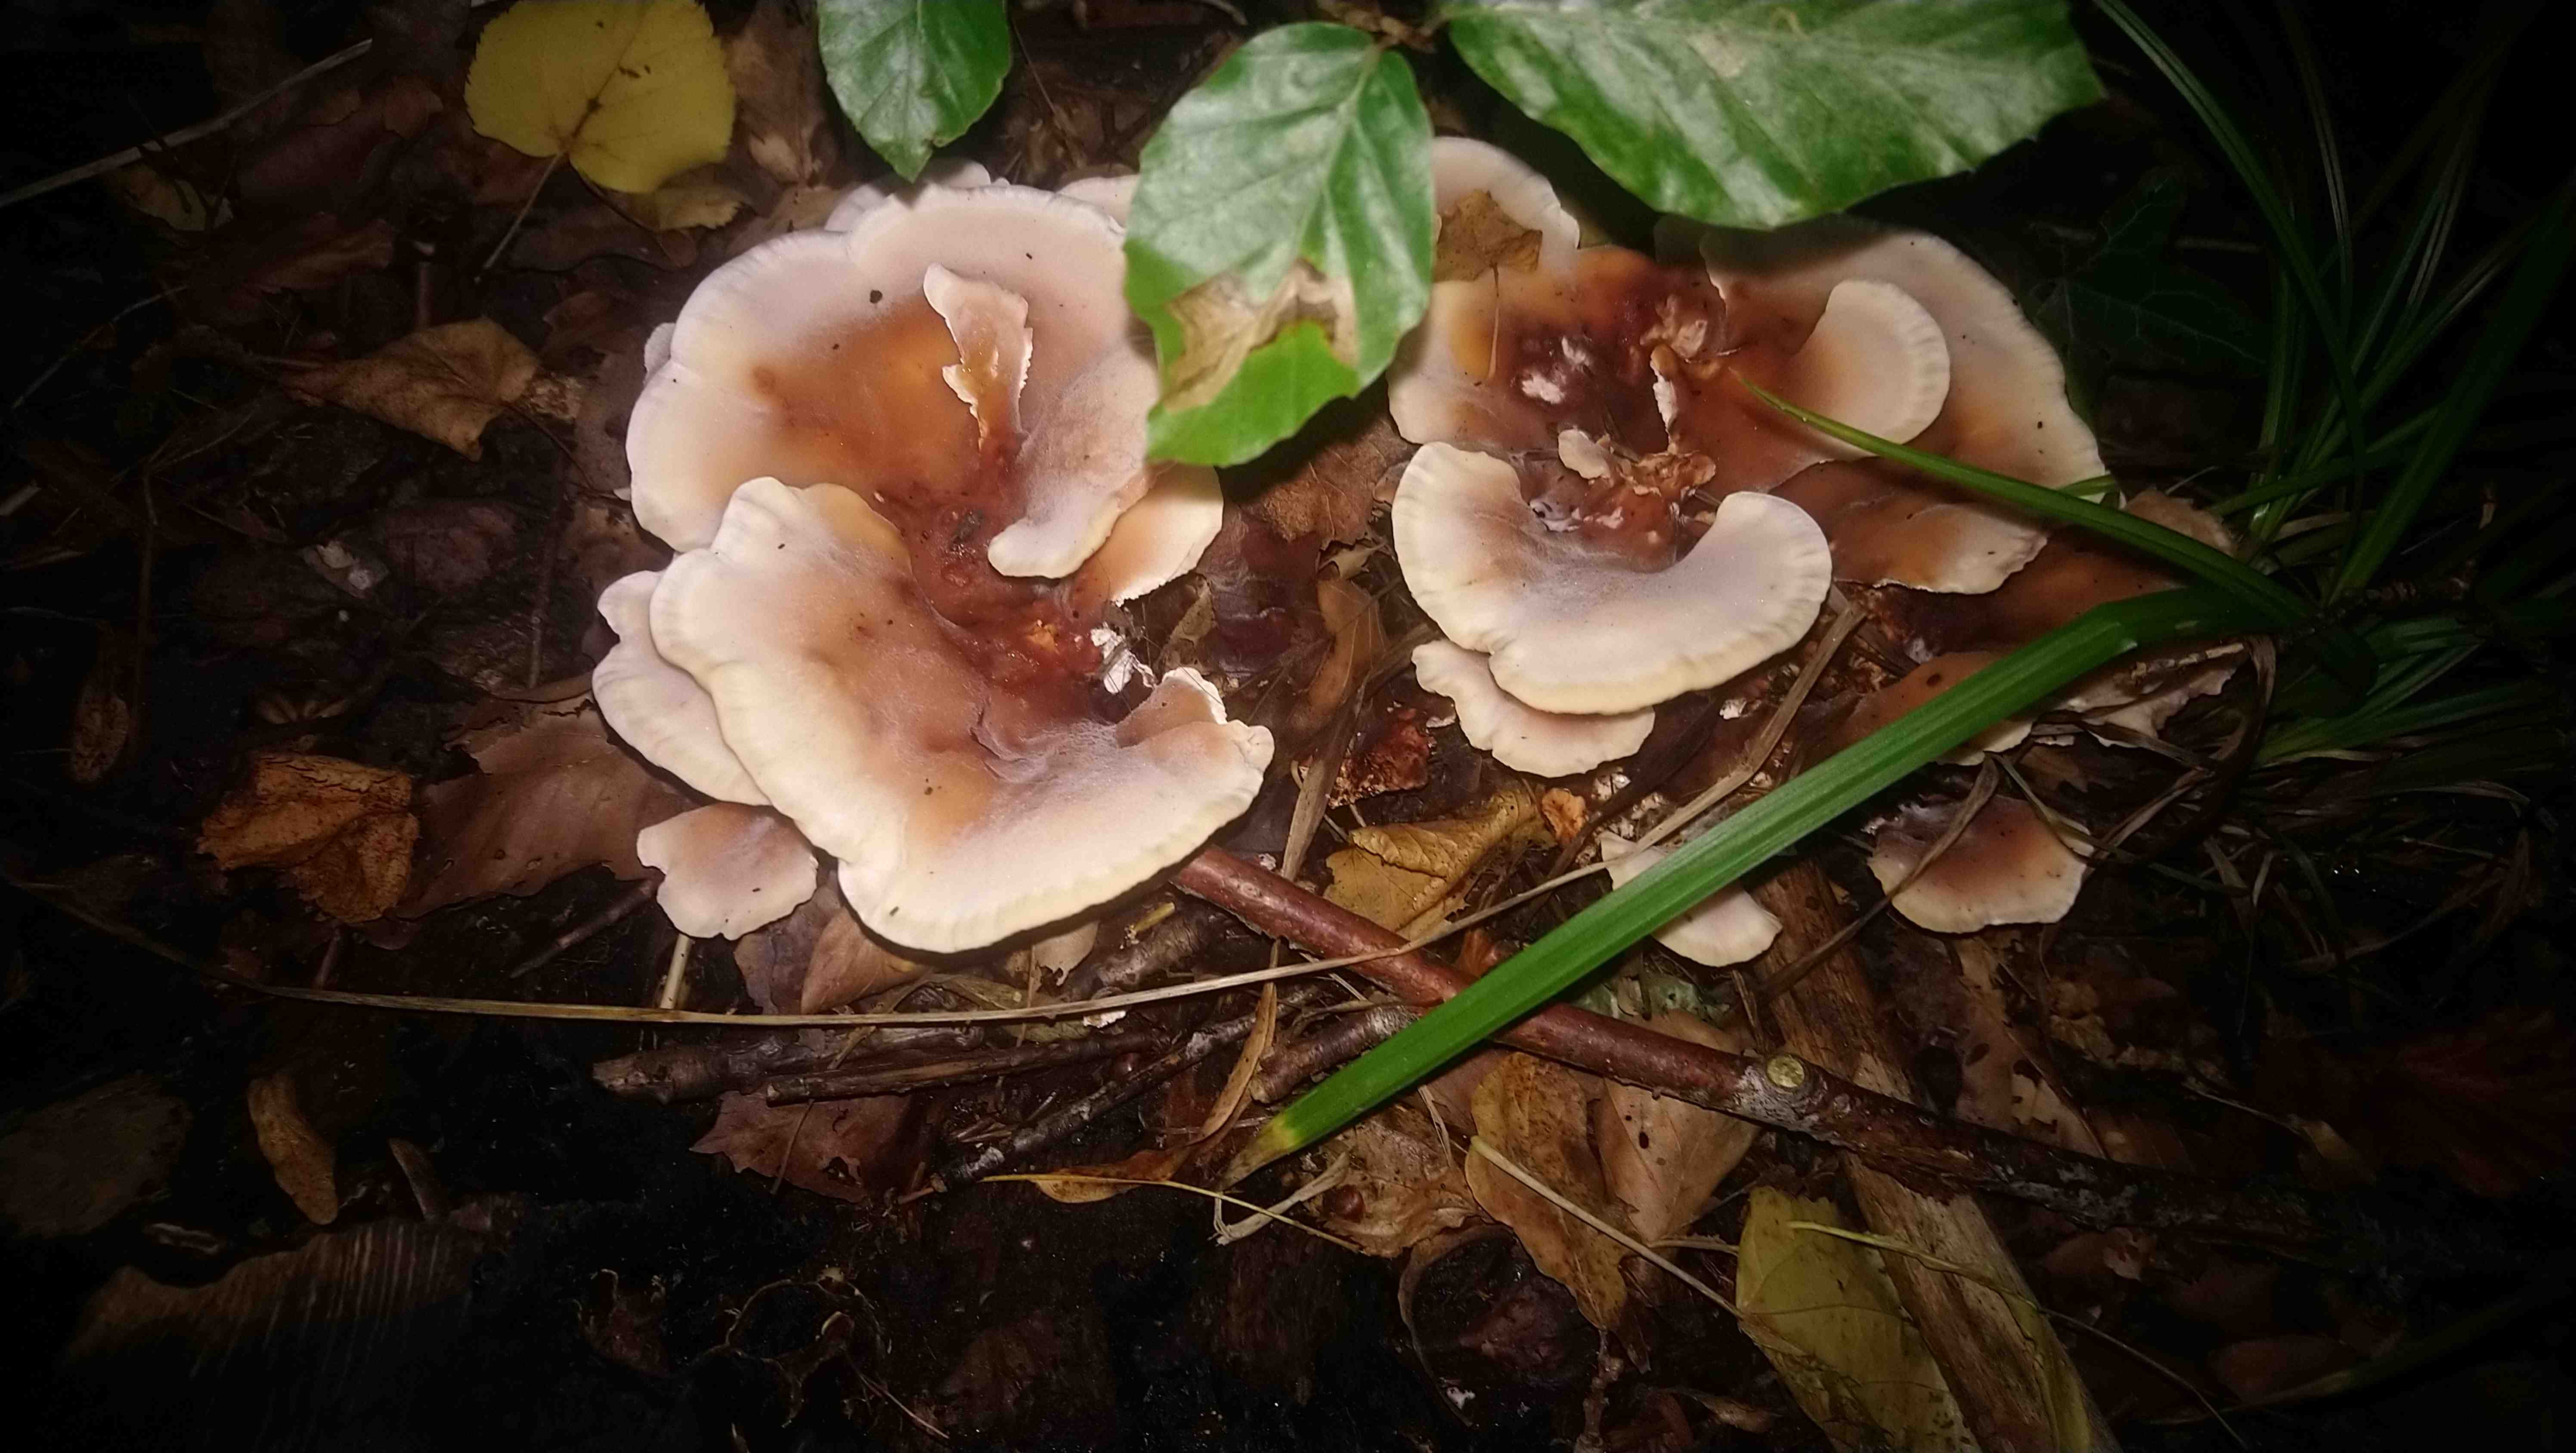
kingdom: Fungi
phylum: Basidiomycota
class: Agaricomycetes
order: Polyporales
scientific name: Polyporales
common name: poresvampordenen
